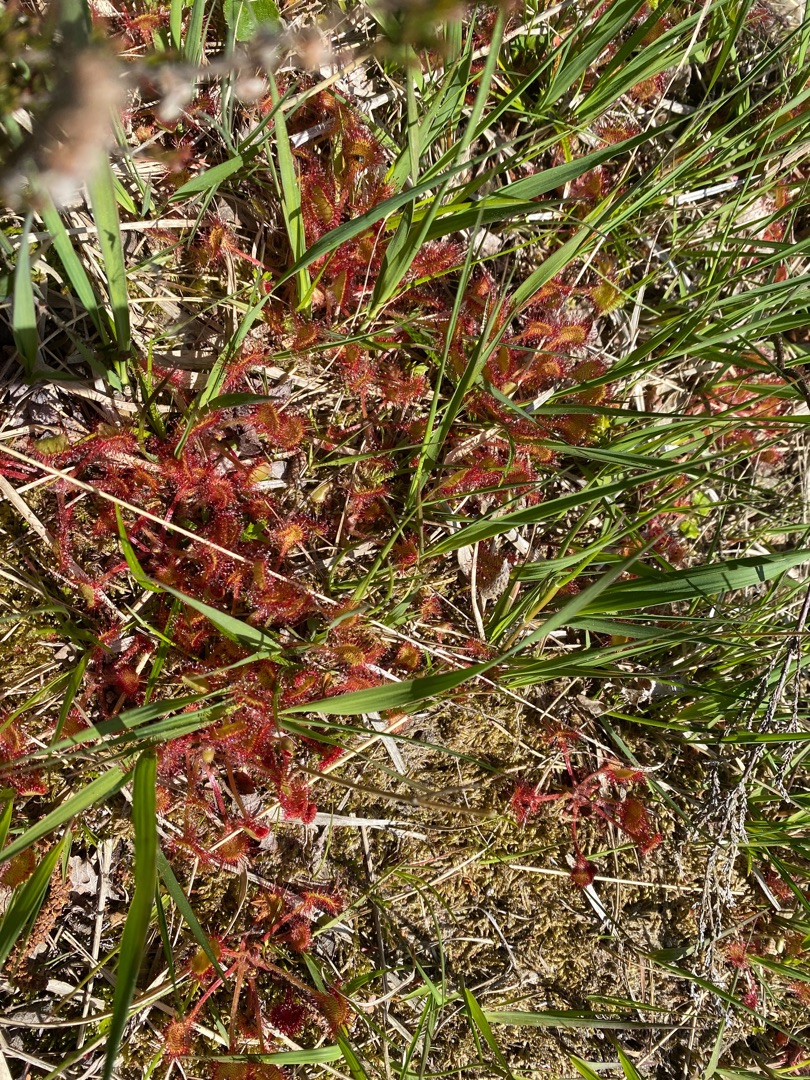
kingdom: Plantae
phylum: Tracheophyta
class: Magnoliopsida
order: Caryophyllales
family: Droseraceae
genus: Drosera
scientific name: Drosera rotundifolia
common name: Rundbladet soldug
